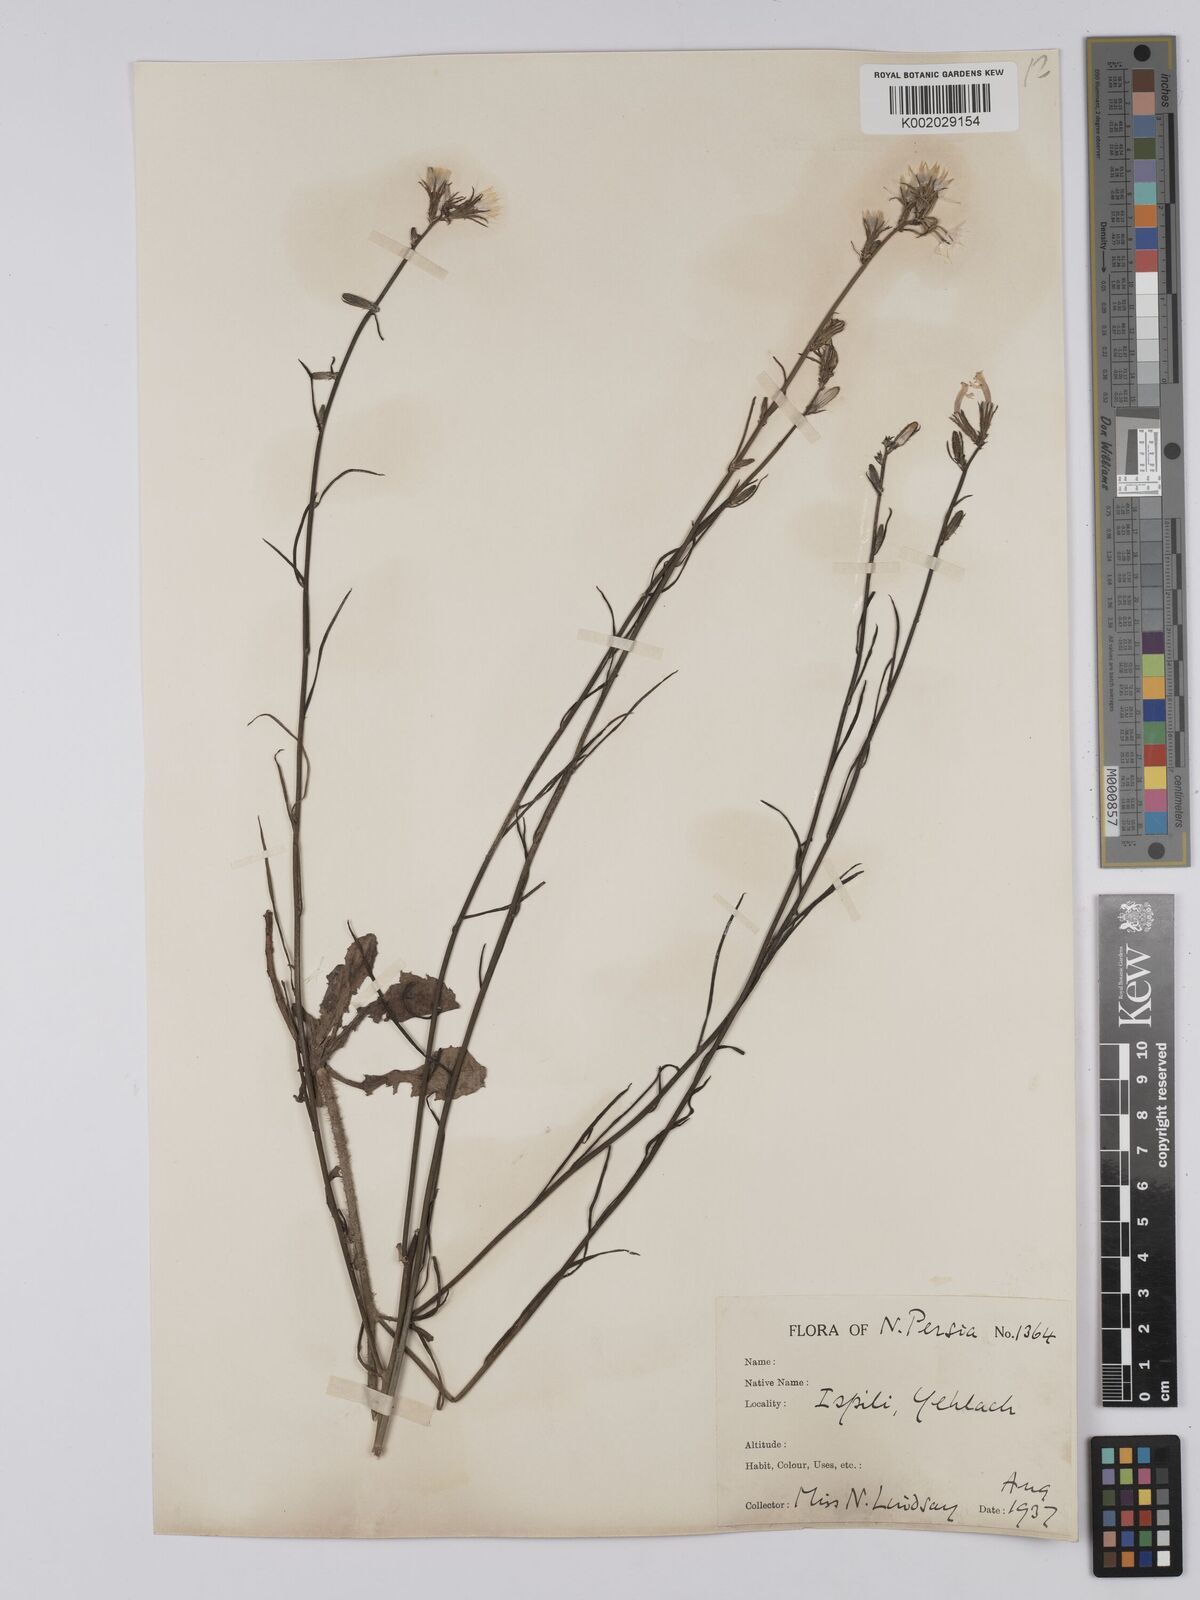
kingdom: Plantae
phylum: Tracheophyta
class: Magnoliopsida
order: Asterales
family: Asteraceae
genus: Chondrilla
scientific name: Chondrilla juncea
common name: Skeleton weed
